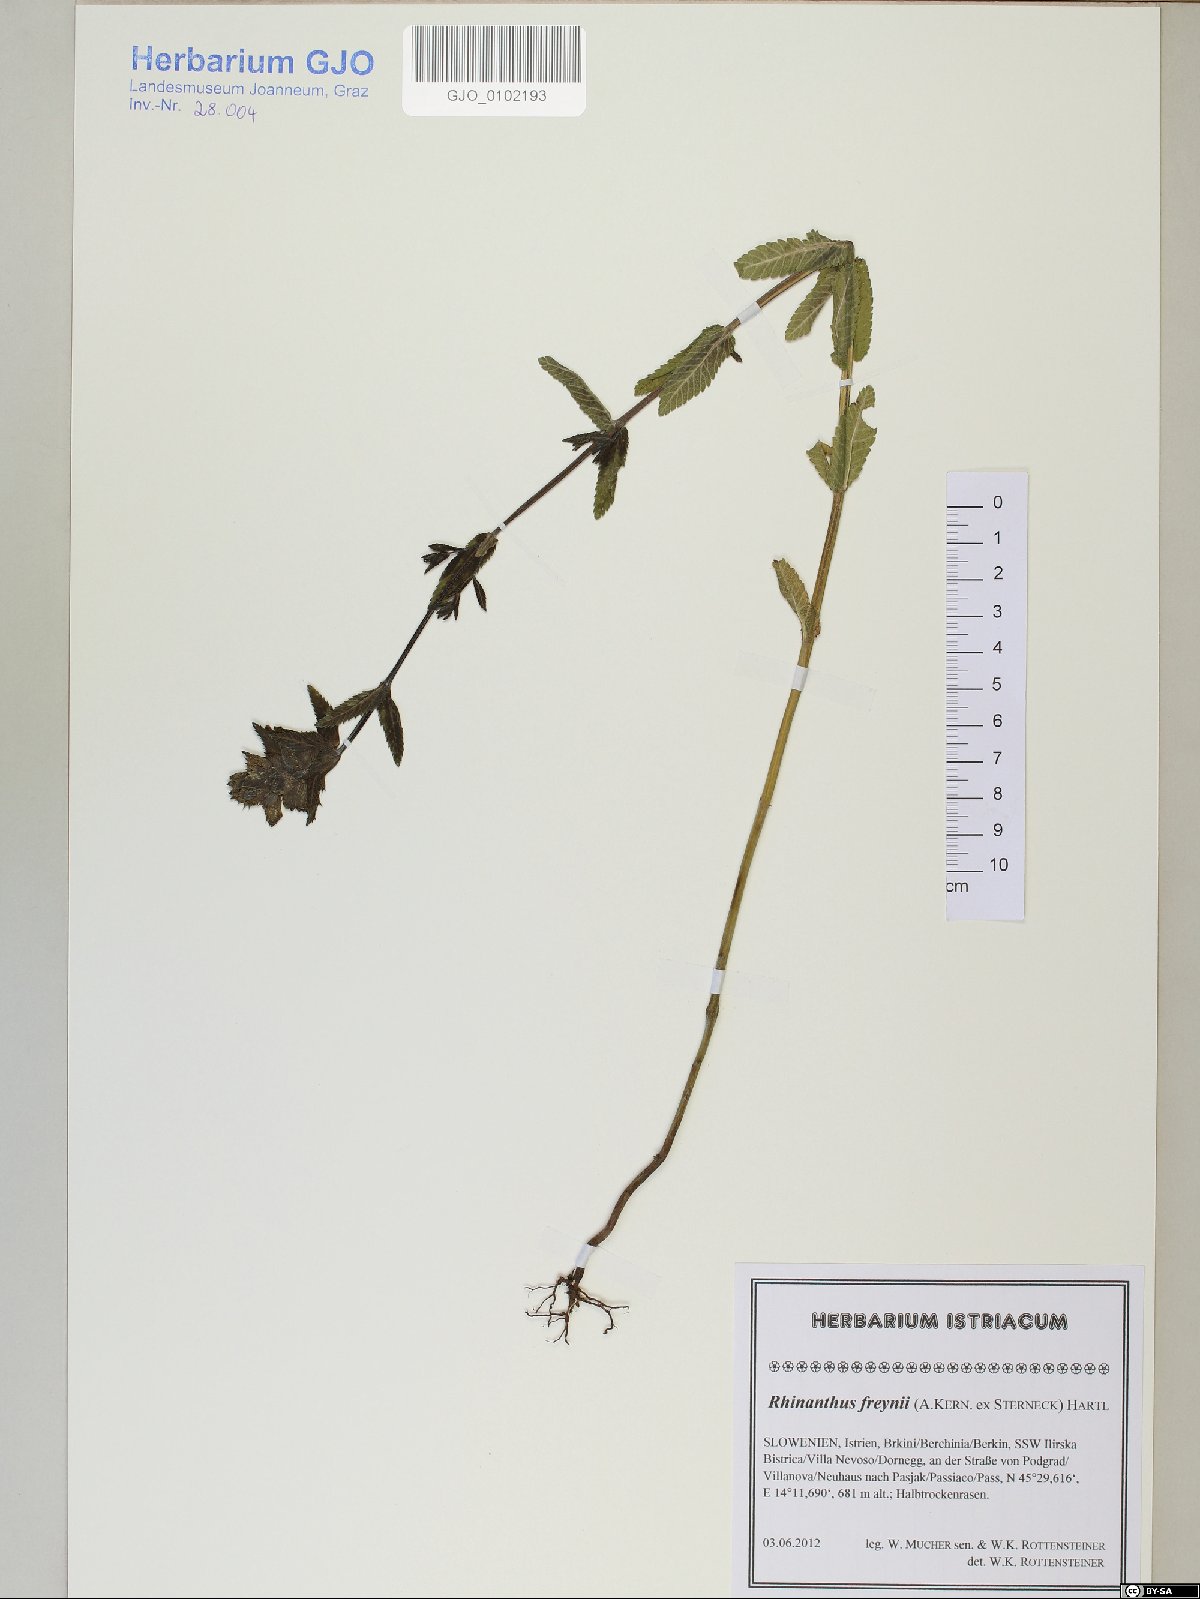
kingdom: Plantae
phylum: Tracheophyta
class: Magnoliopsida
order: Lamiales
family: Orobanchaceae
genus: Rhinanthus
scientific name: Rhinanthus freynii
